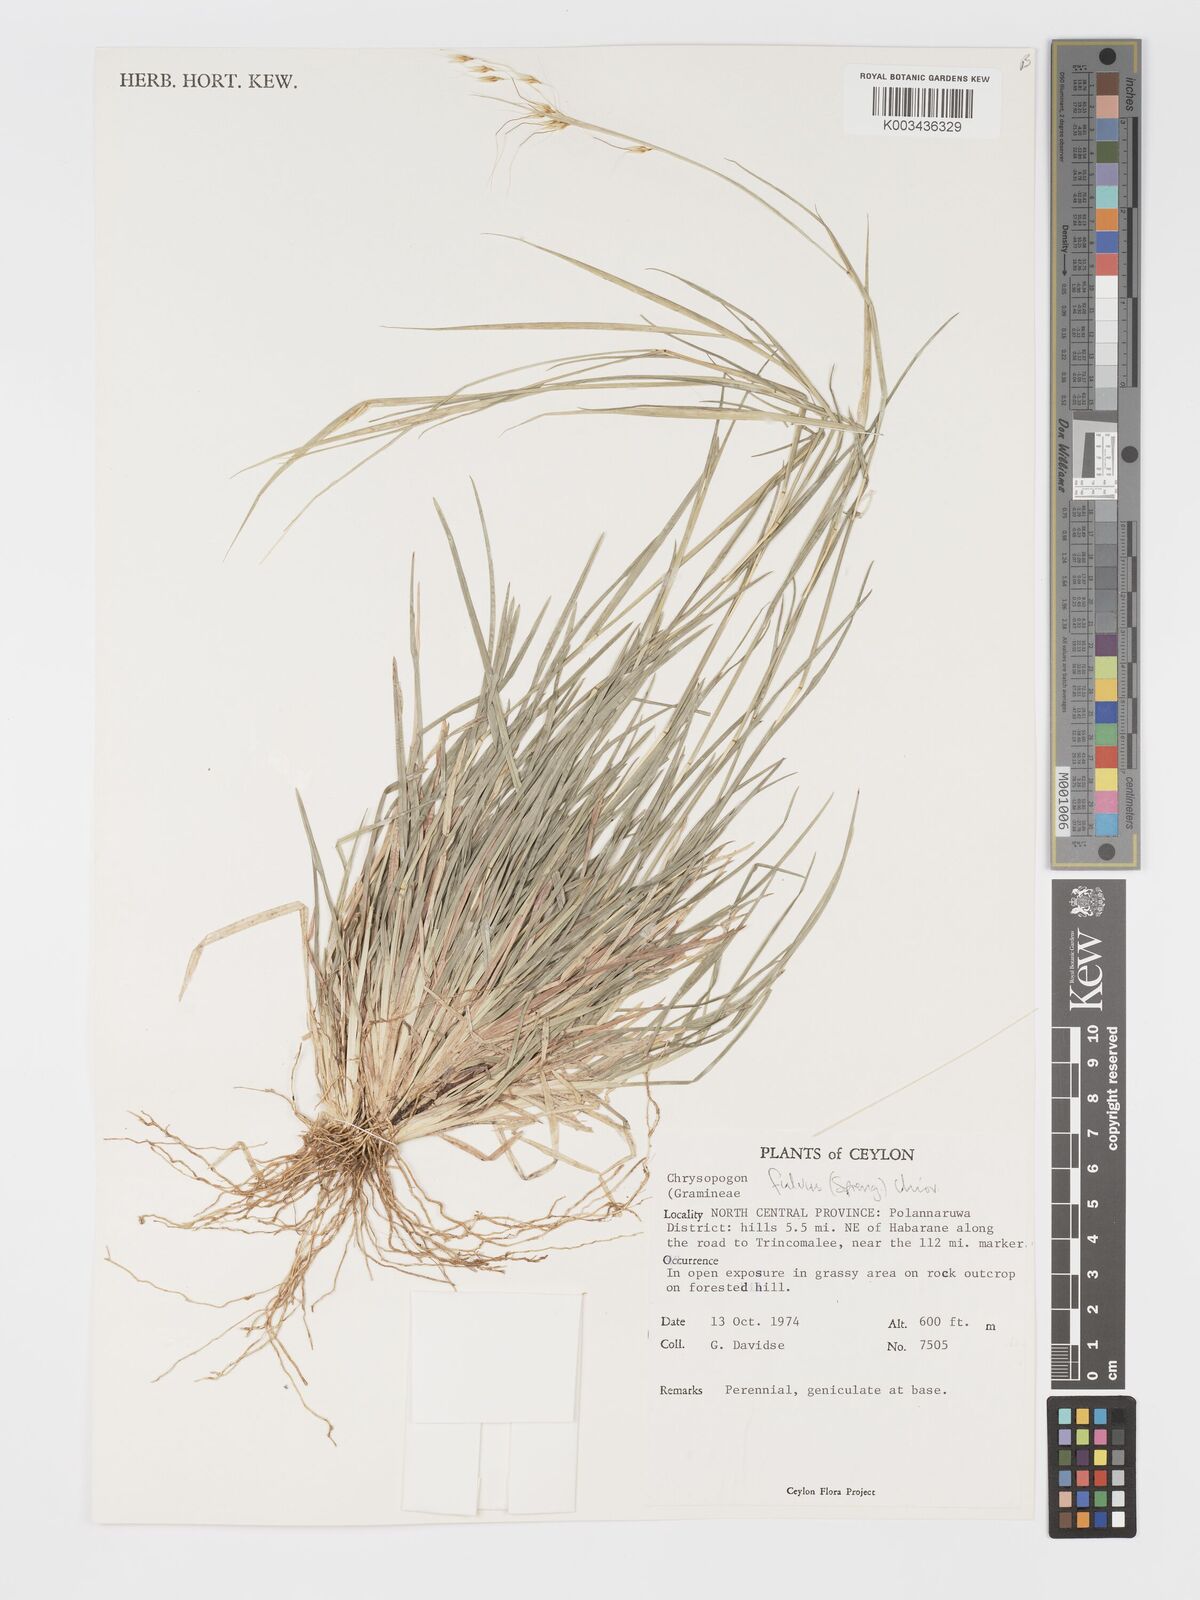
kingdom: Plantae
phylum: Tracheophyta
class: Liliopsida
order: Poales
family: Poaceae
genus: Chrysopogon
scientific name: Chrysopogon fulvus
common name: Red false beardgrass
